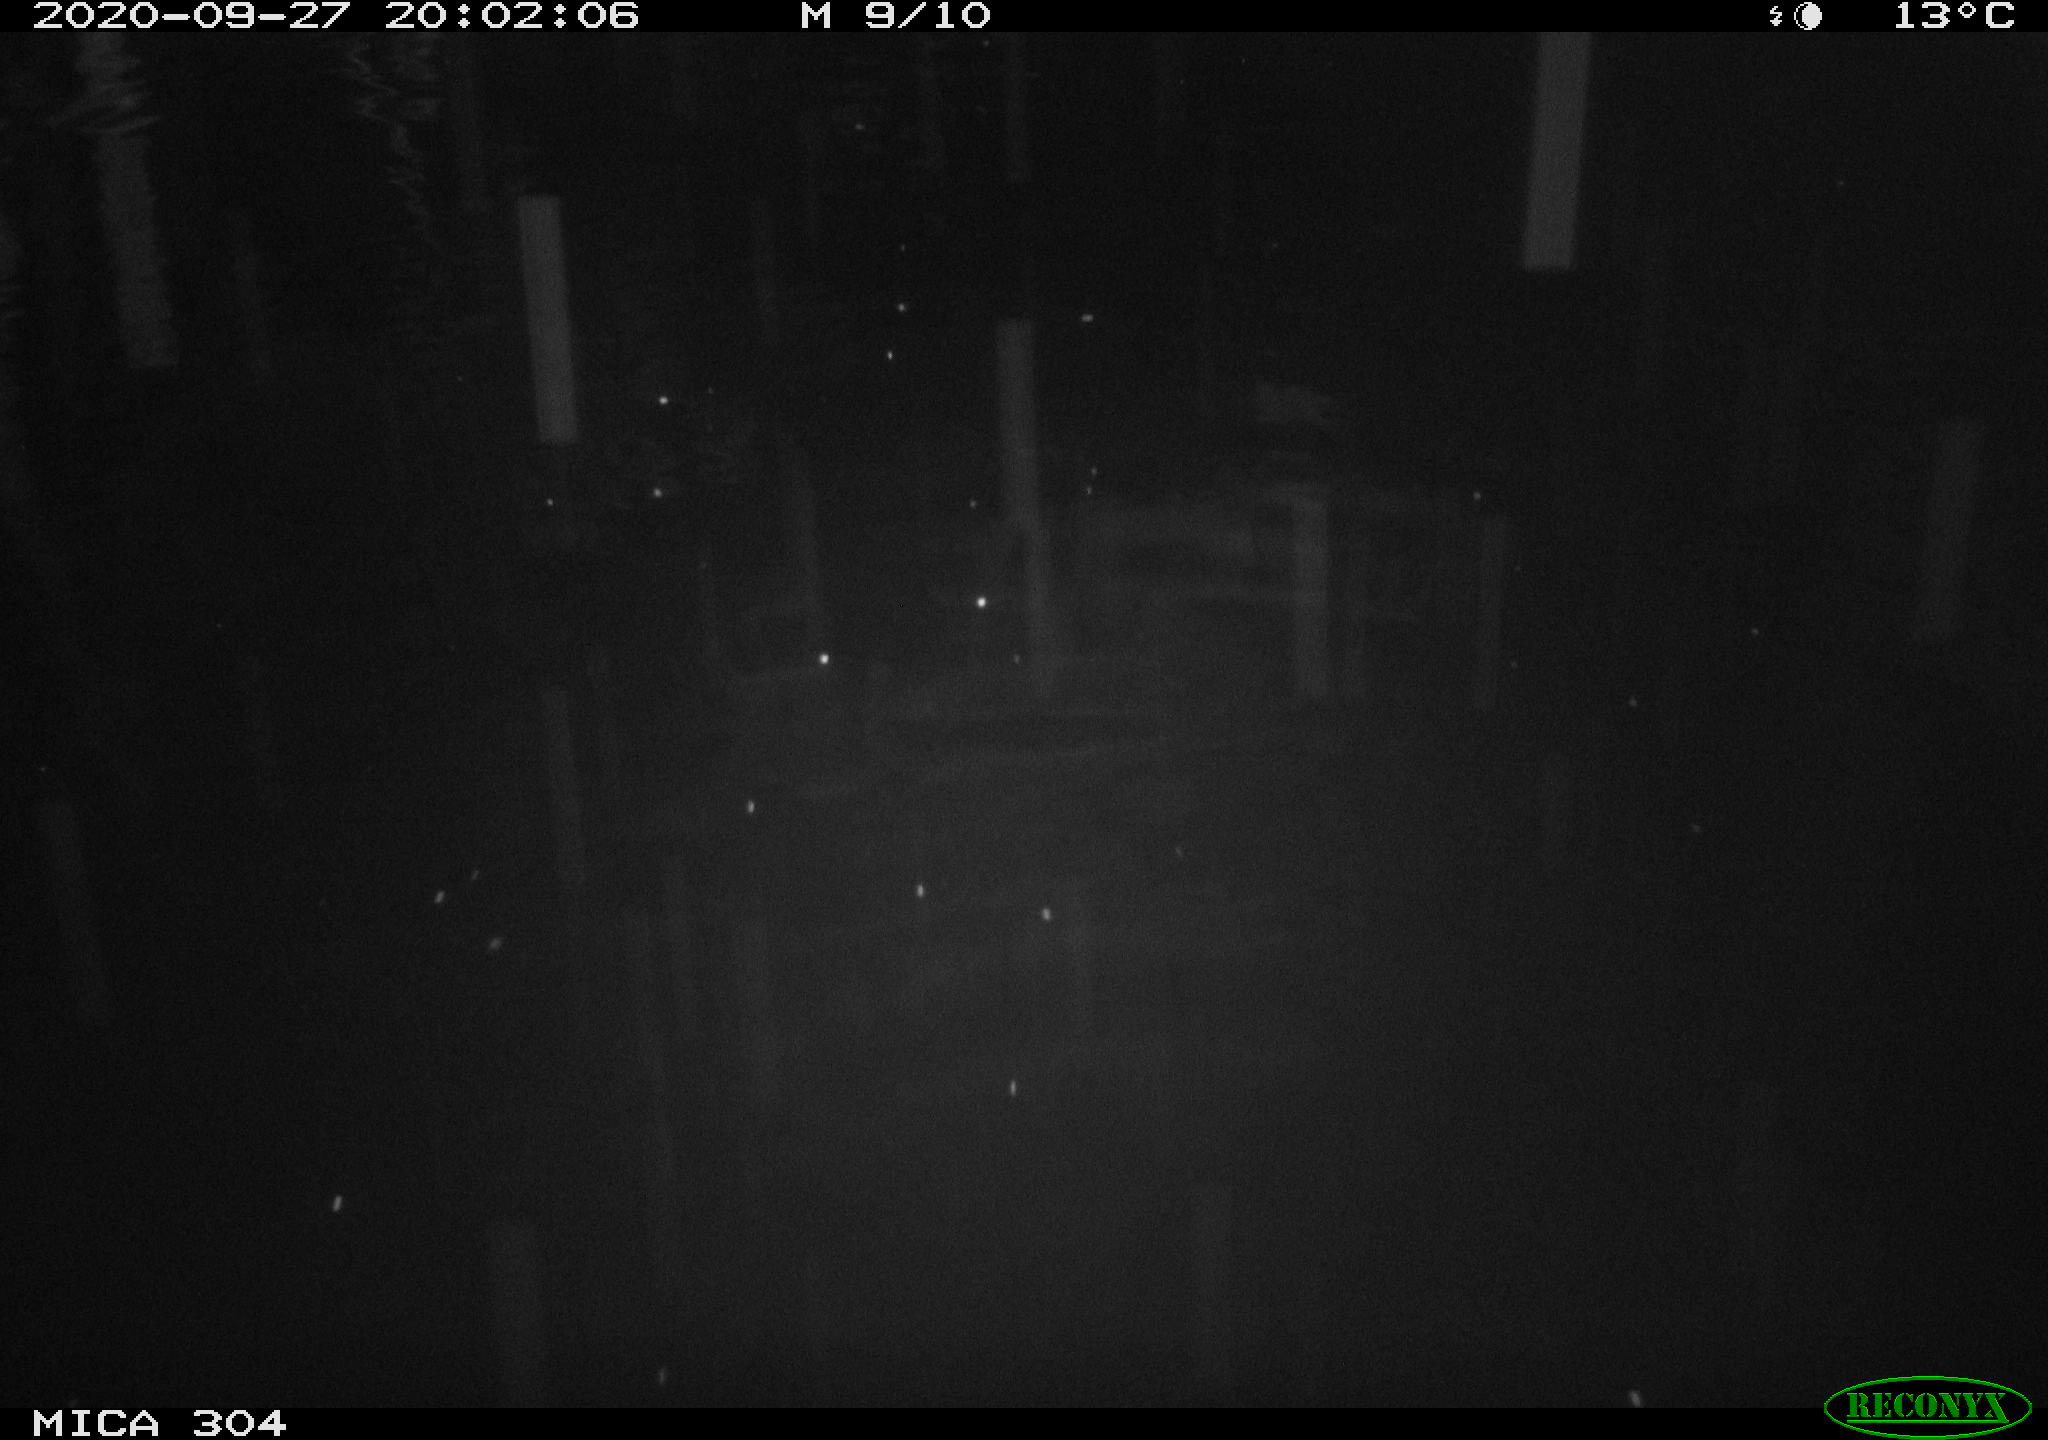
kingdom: Animalia
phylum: Chordata
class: Mammalia
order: Rodentia
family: Muridae
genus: Rattus
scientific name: Rattus norvegicus
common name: Brown rat
